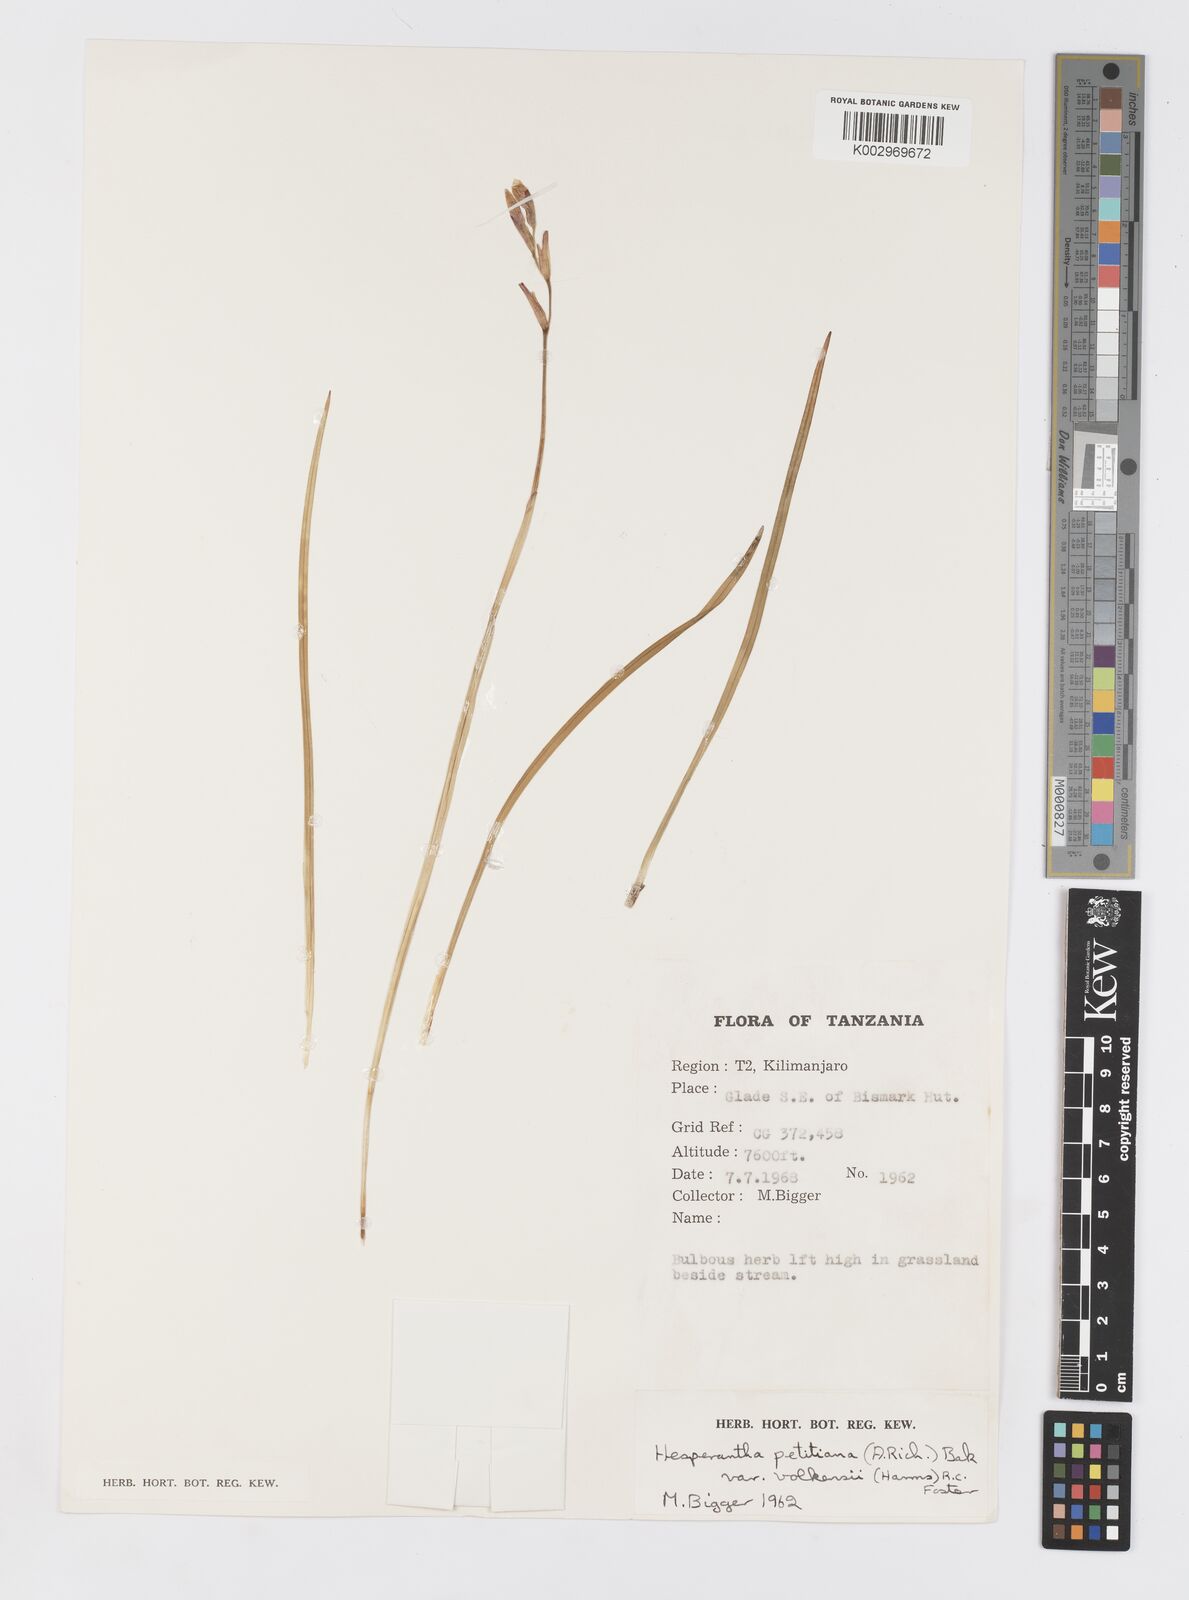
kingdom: Plantae
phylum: Tracheophyta
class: Liliopsida
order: Asparagales
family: Iridaceae
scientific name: Iridaceae
